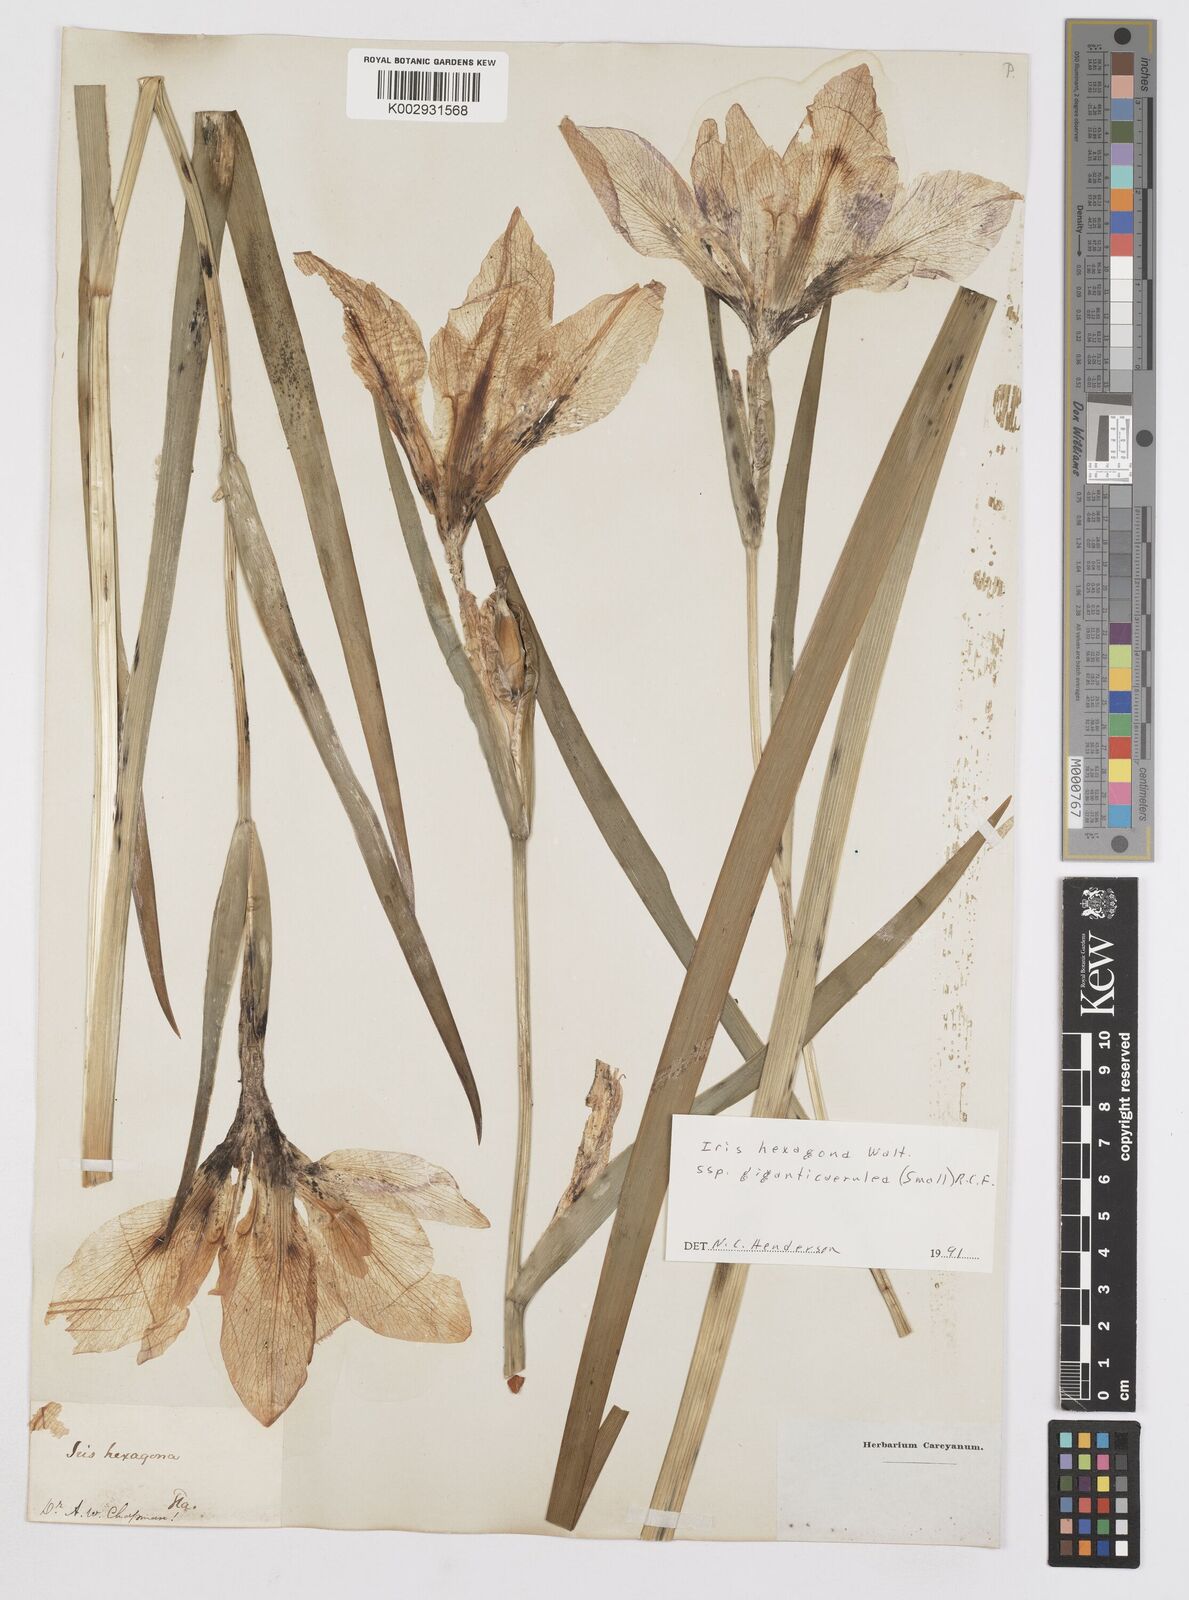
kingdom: Plantae
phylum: Tracheophyta
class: Liliopsida
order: Asparagales
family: Iridaceae
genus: Iris
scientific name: Iris hexagona
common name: Carolina iris
